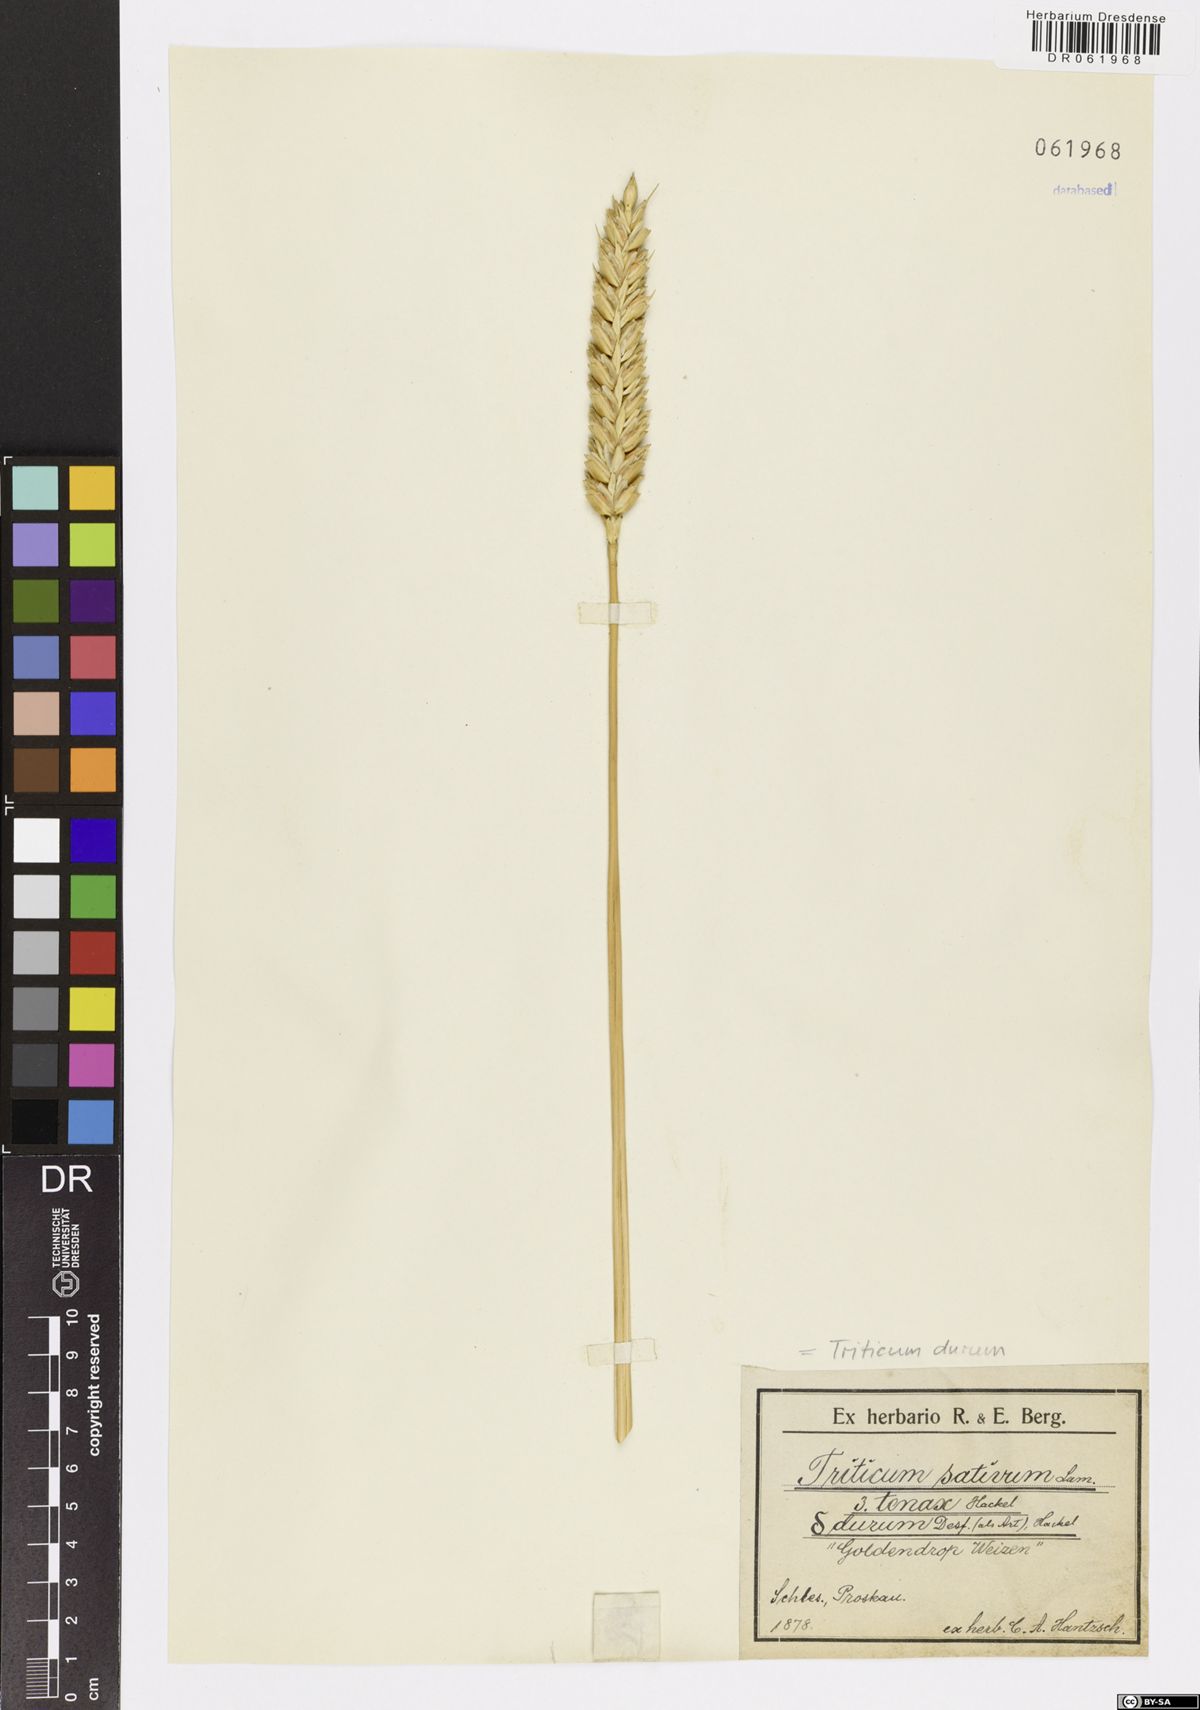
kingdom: Plantae
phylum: Tracheophyta
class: Liliopsida
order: Poales
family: Poaceae
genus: Triticum
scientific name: Triticum turgidum
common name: Rivet wheat
